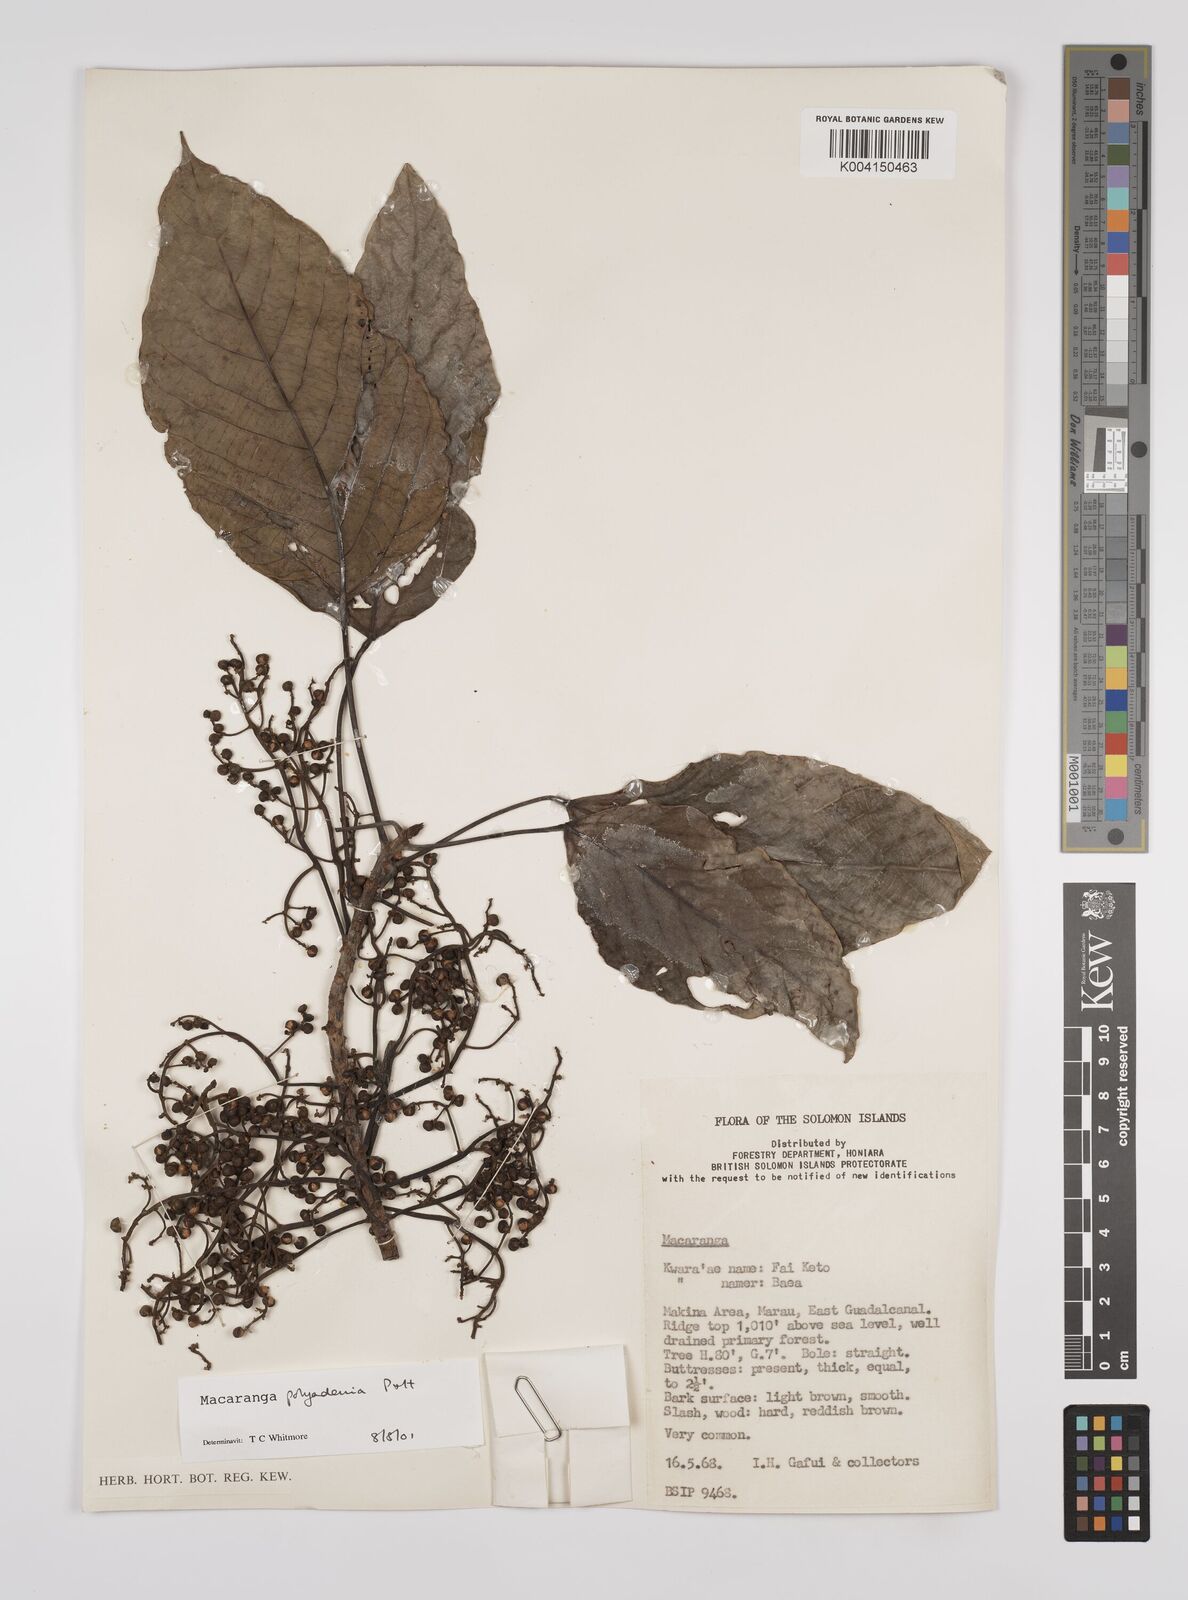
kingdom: Plantae
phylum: Tracheophyta
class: Magnoliopsida
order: Malpighiales
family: Euphorbiaceae
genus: Macaranga
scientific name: Macaranga polyadenia
